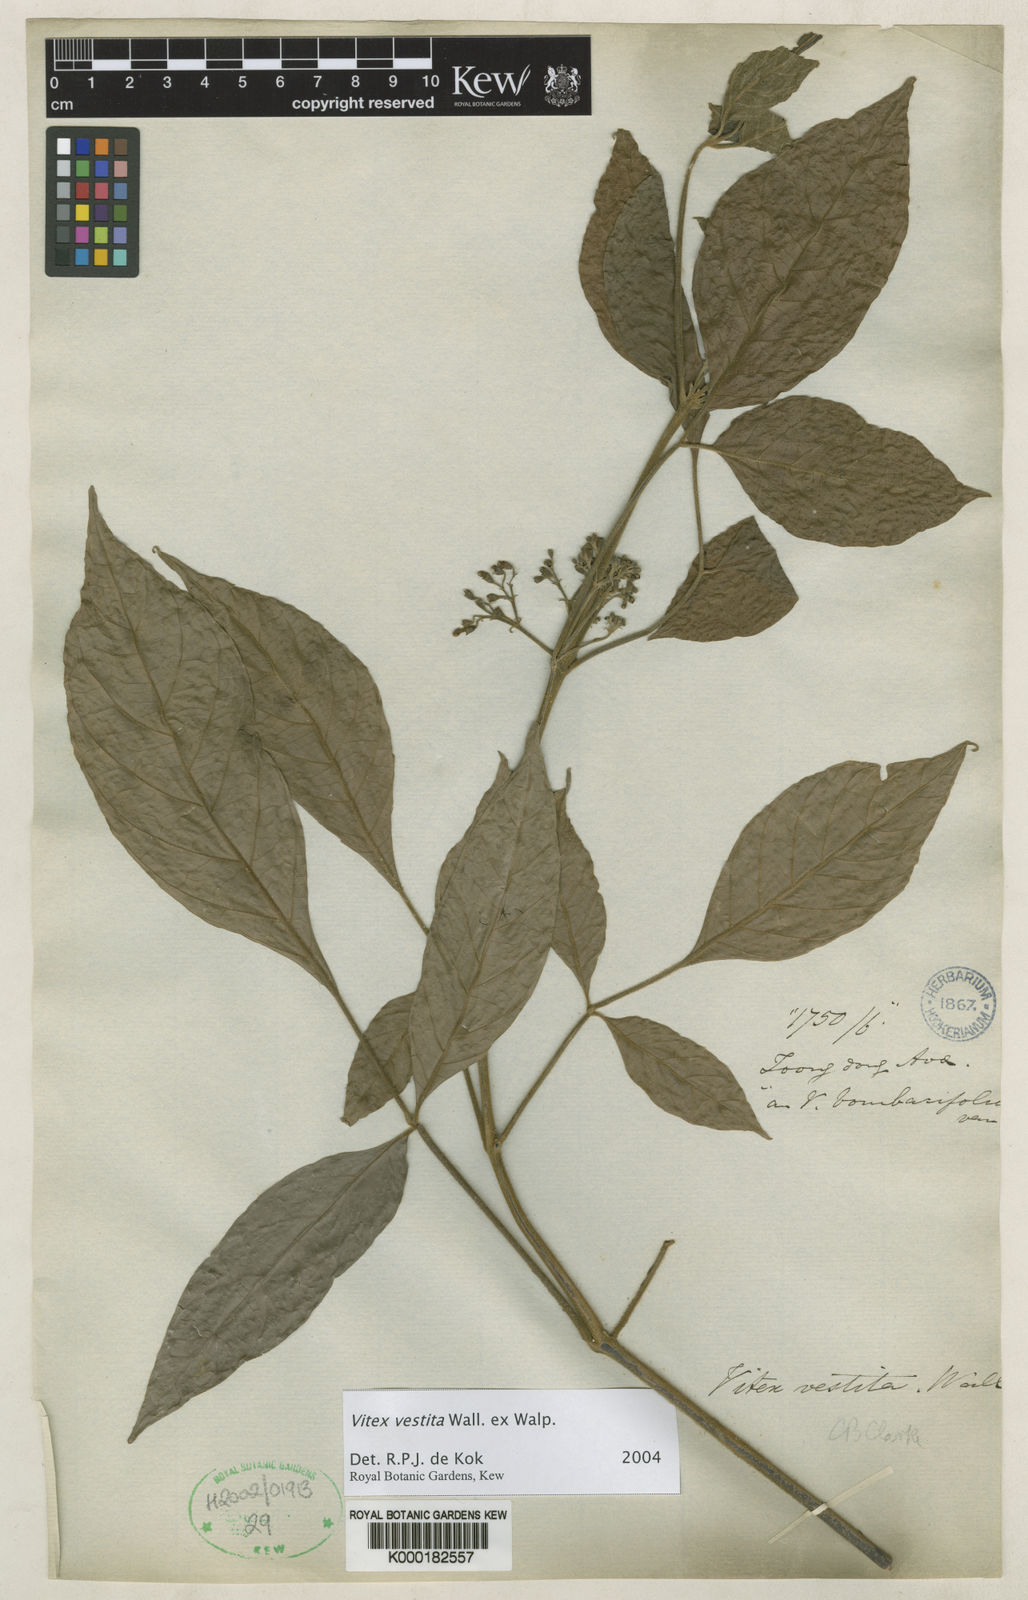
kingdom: Plantae
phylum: Tracheophyta
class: Magnoliopsida
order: Lamiales
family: Lamiaceae
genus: Vitex
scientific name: Vitex vestita
